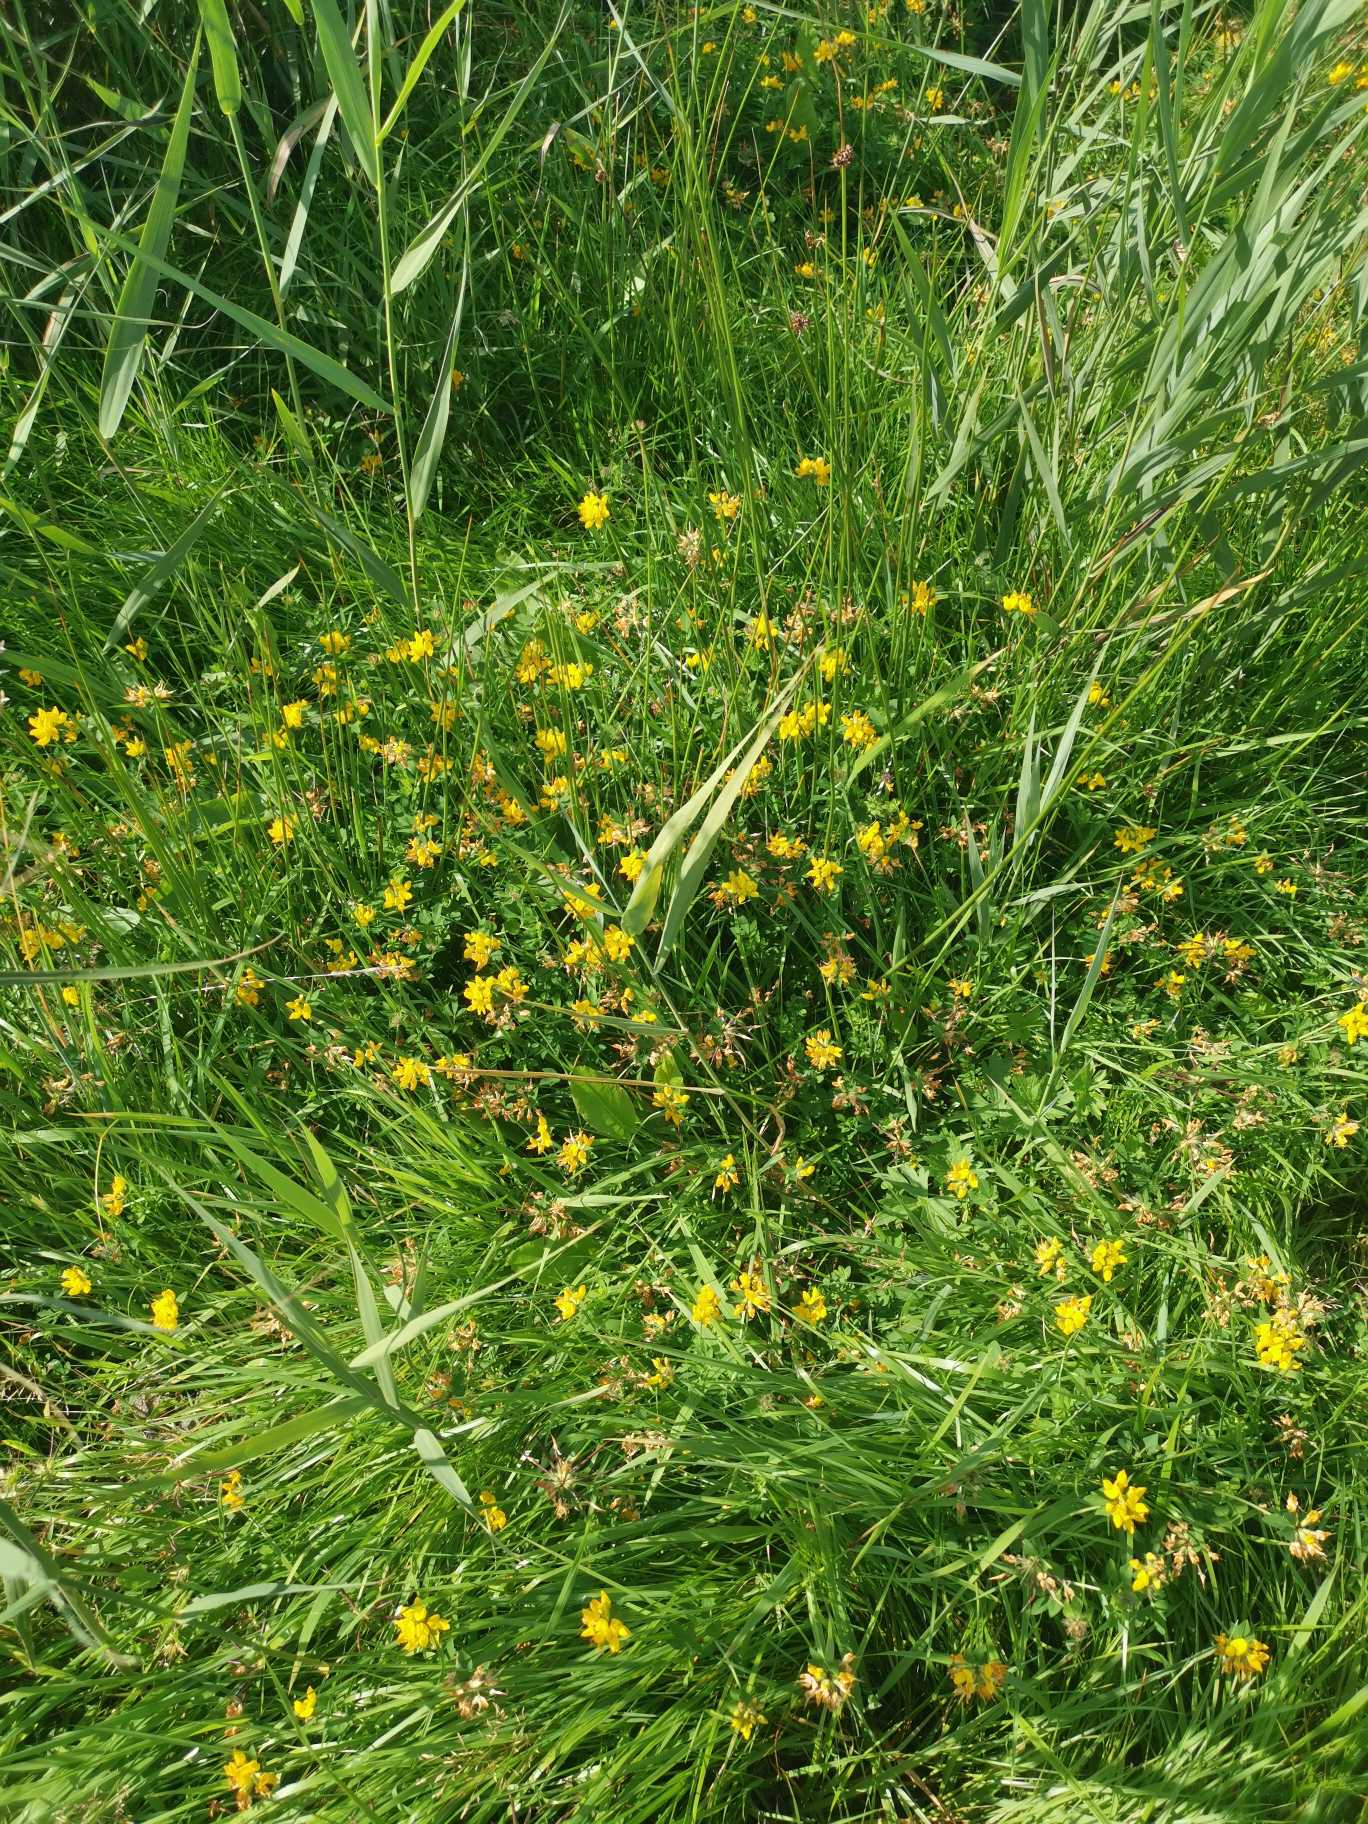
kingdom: Plantae
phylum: Tracheophyta
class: Magnoliopsida
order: Fabales
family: Fabaceae
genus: Lotus
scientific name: Lotus pedunculatus
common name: Sump-kællingetand
